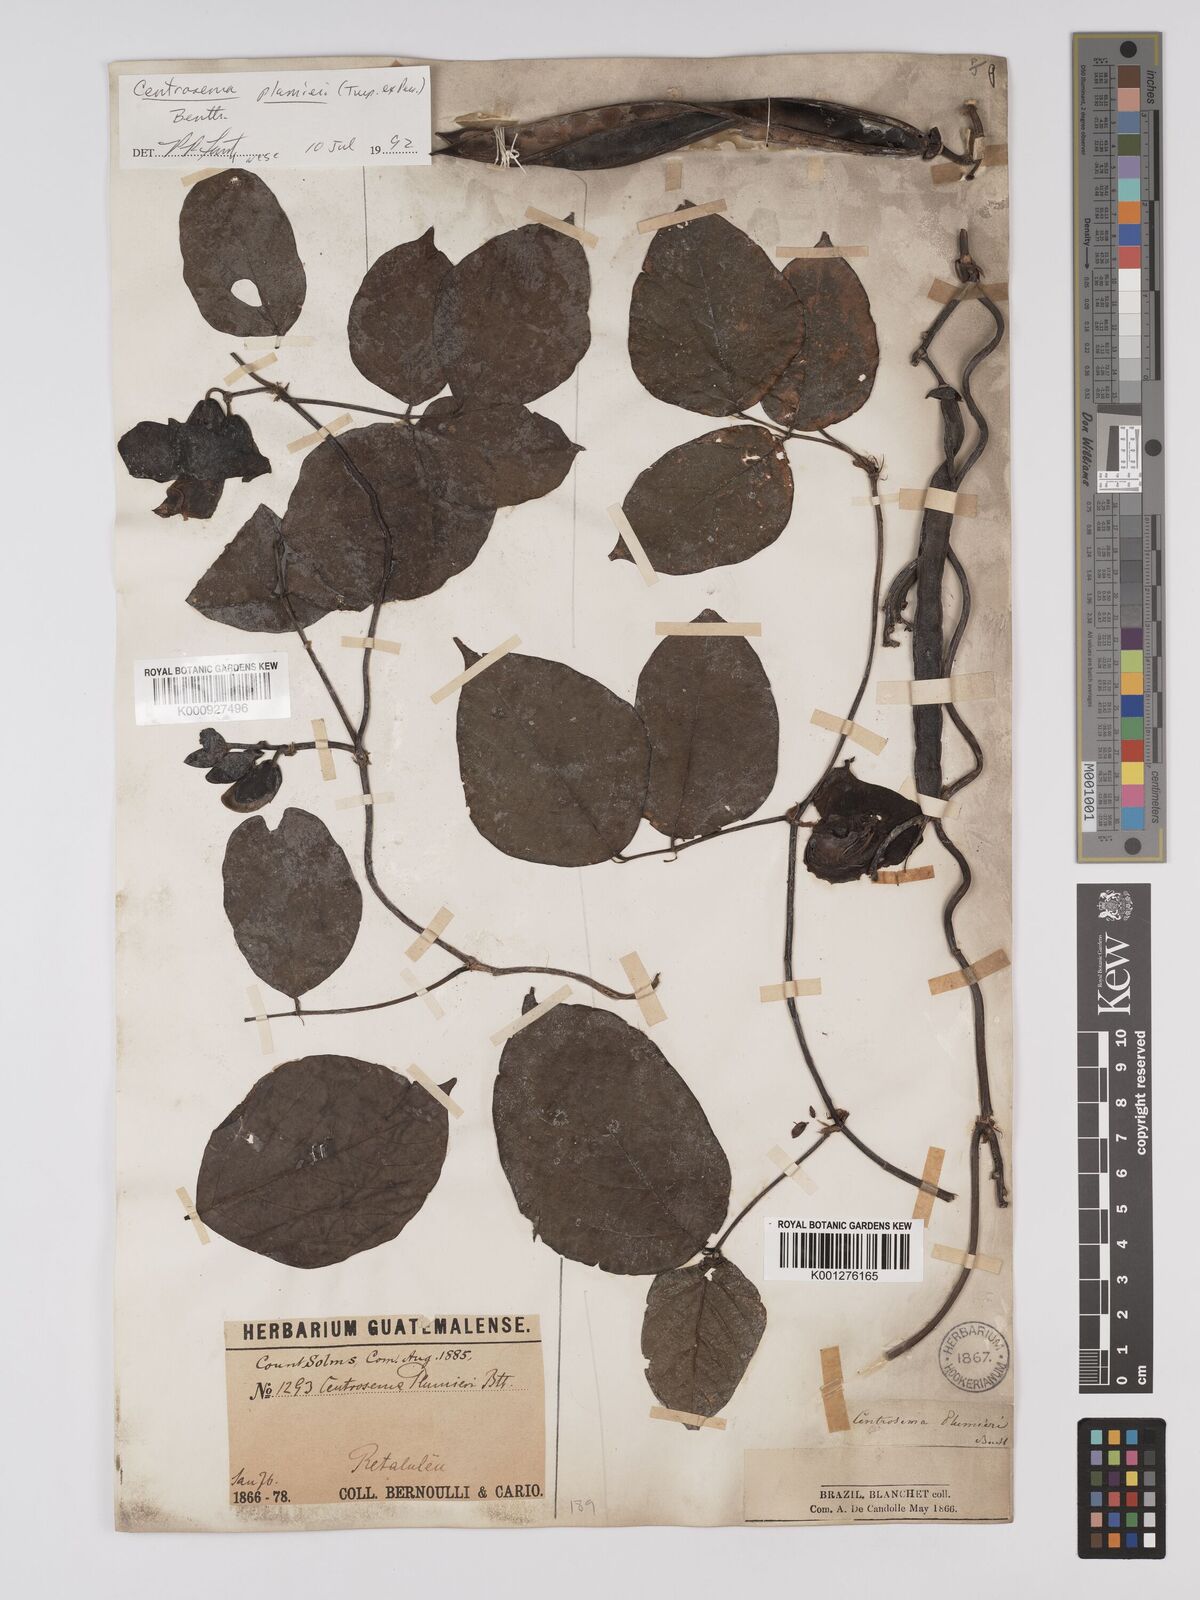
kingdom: Plantae
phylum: Tracheophyta
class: Magnoliopsida
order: Fabales
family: Fabaceae
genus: Centrosema
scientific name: Centrosema plumieri
